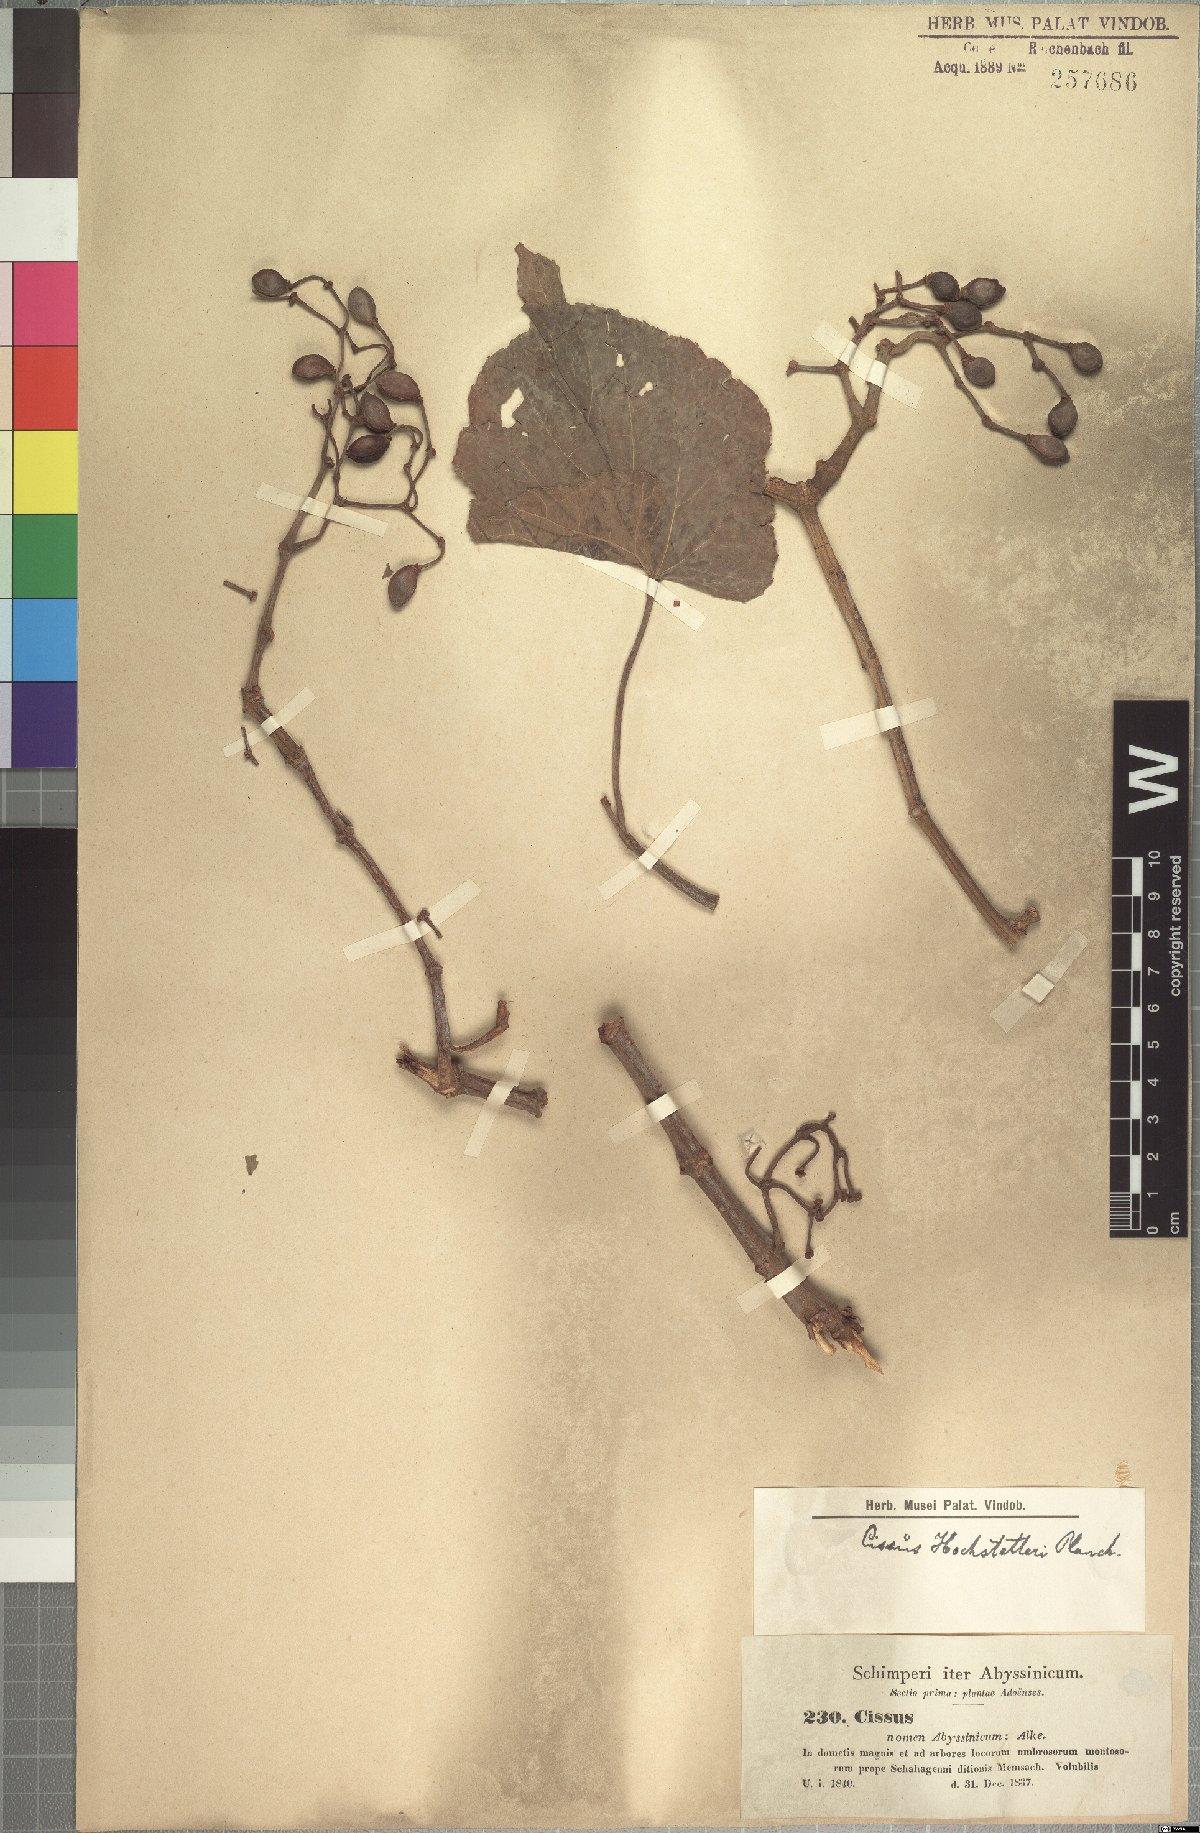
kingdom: Plantae
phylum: Tracheophyta
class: Magnoliopsida
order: Vitales
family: Vitaceae
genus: Cissus
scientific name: Cissus petiolata
